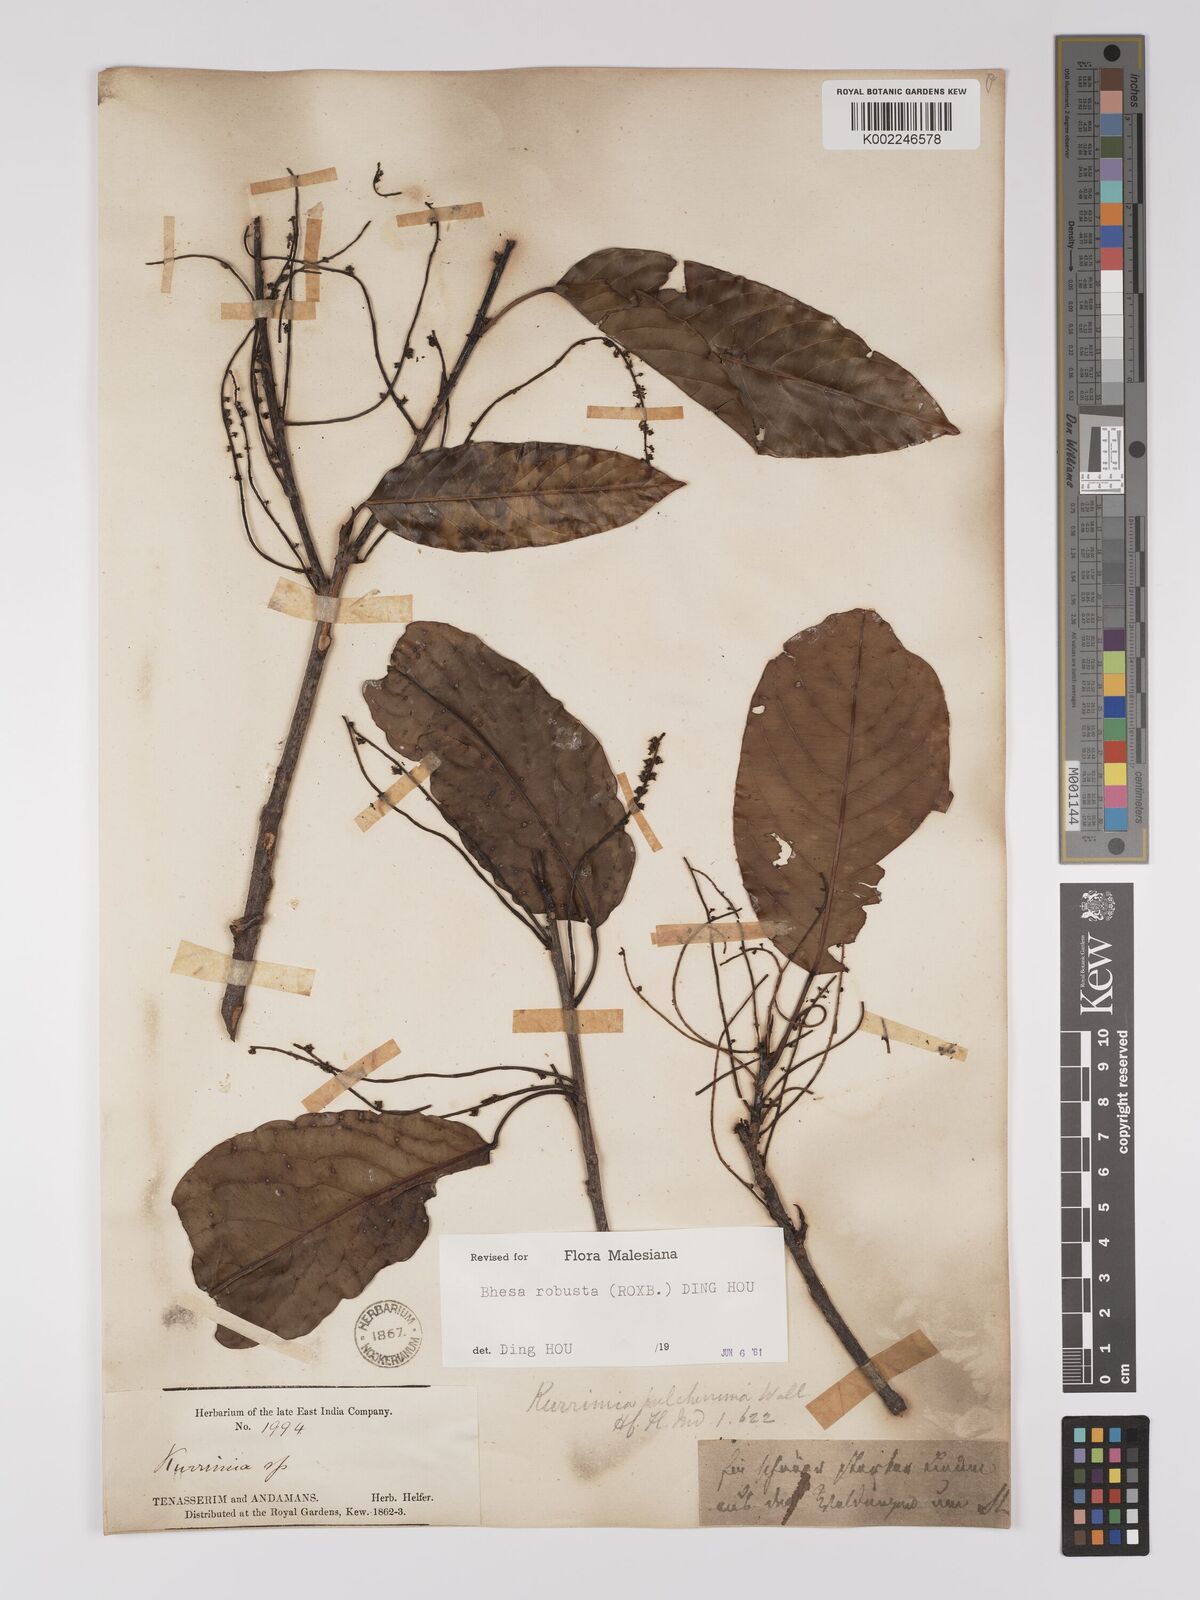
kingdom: Plantae
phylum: Tracheophyta
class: Magnoliopsida
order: Malpighiales
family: Centroplacaceae
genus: Bhesa
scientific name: Bhesa robusta
